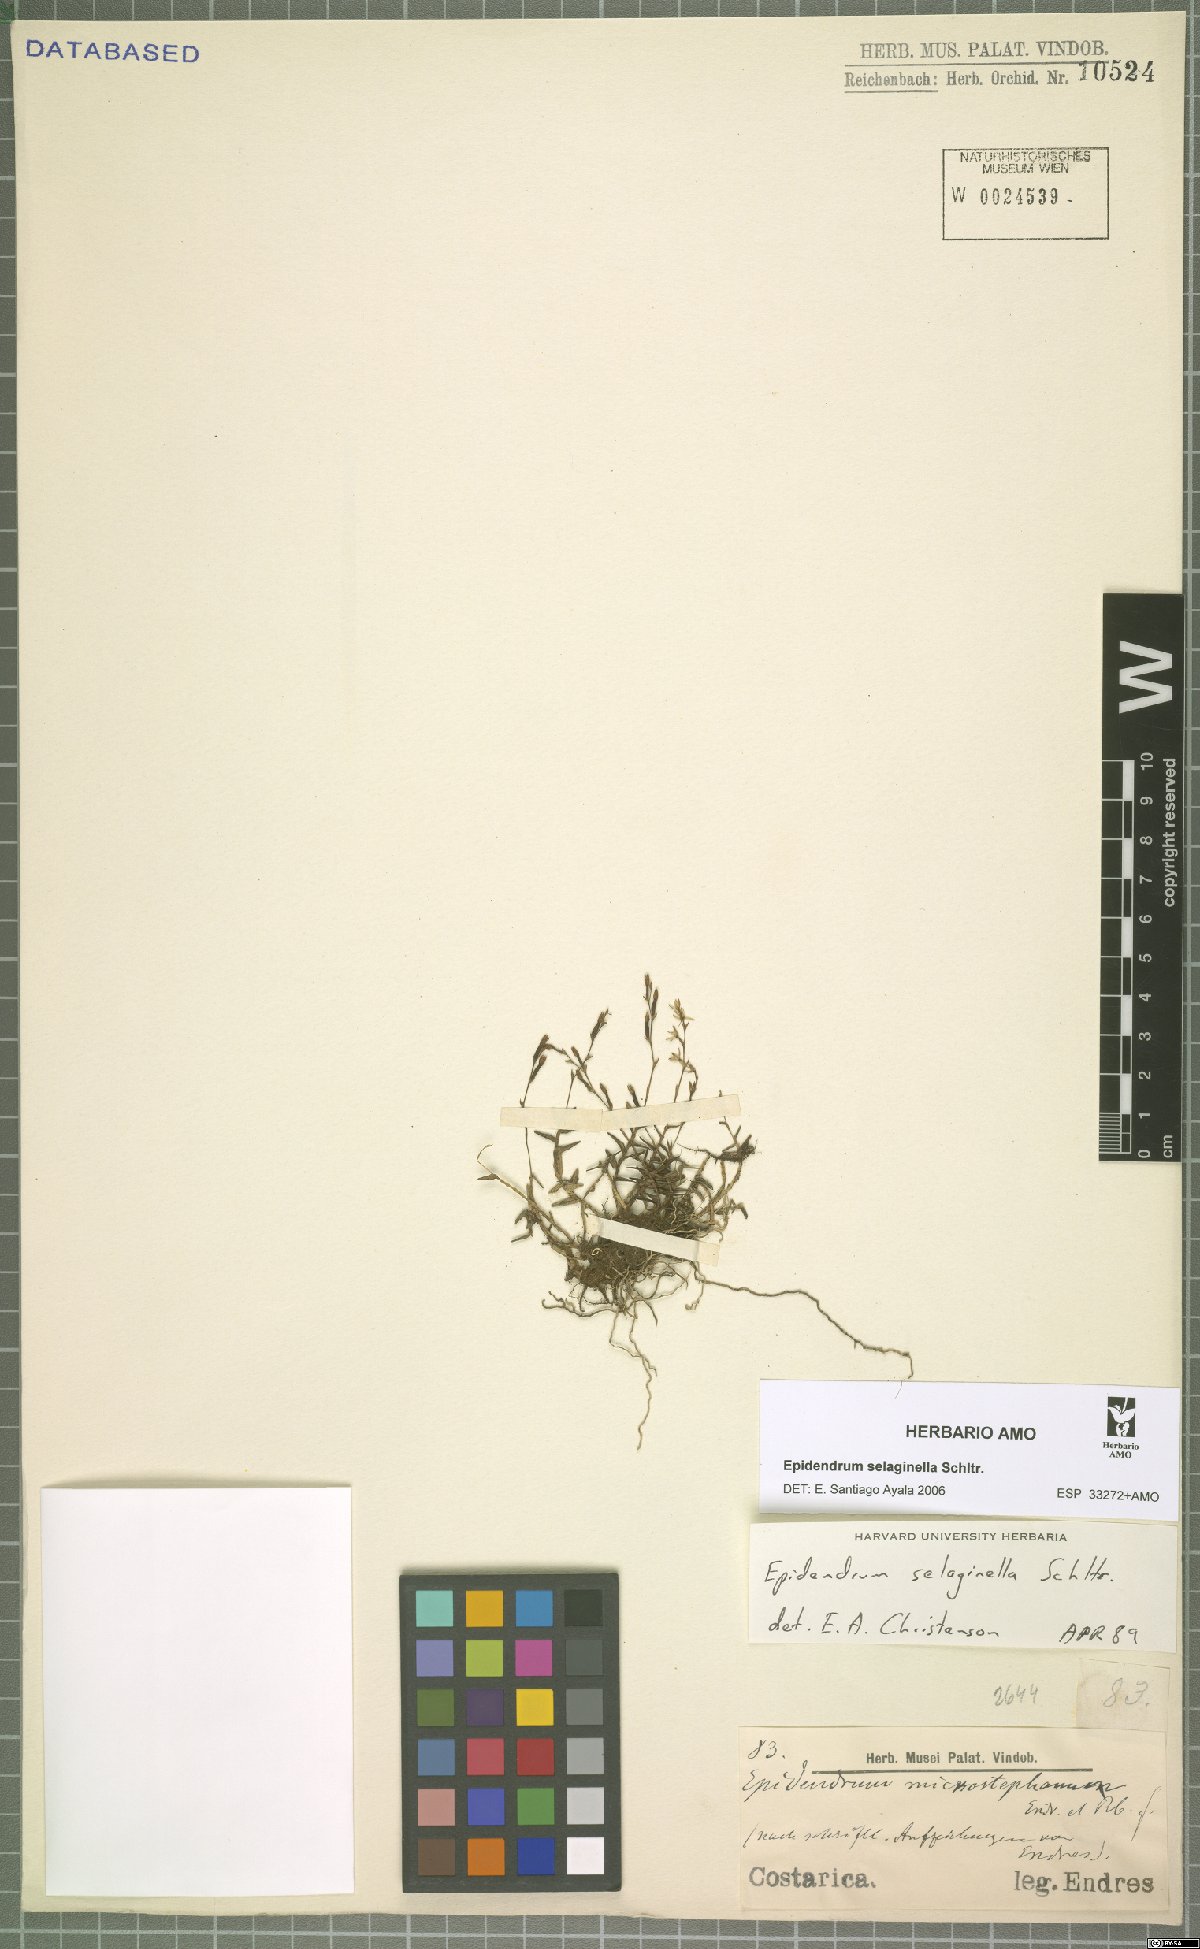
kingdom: Plantae
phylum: Tracheophyta
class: Liliopsida
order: Asparagales
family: Orchidaceae
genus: Epidendrum
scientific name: Epidendrum selaginella
